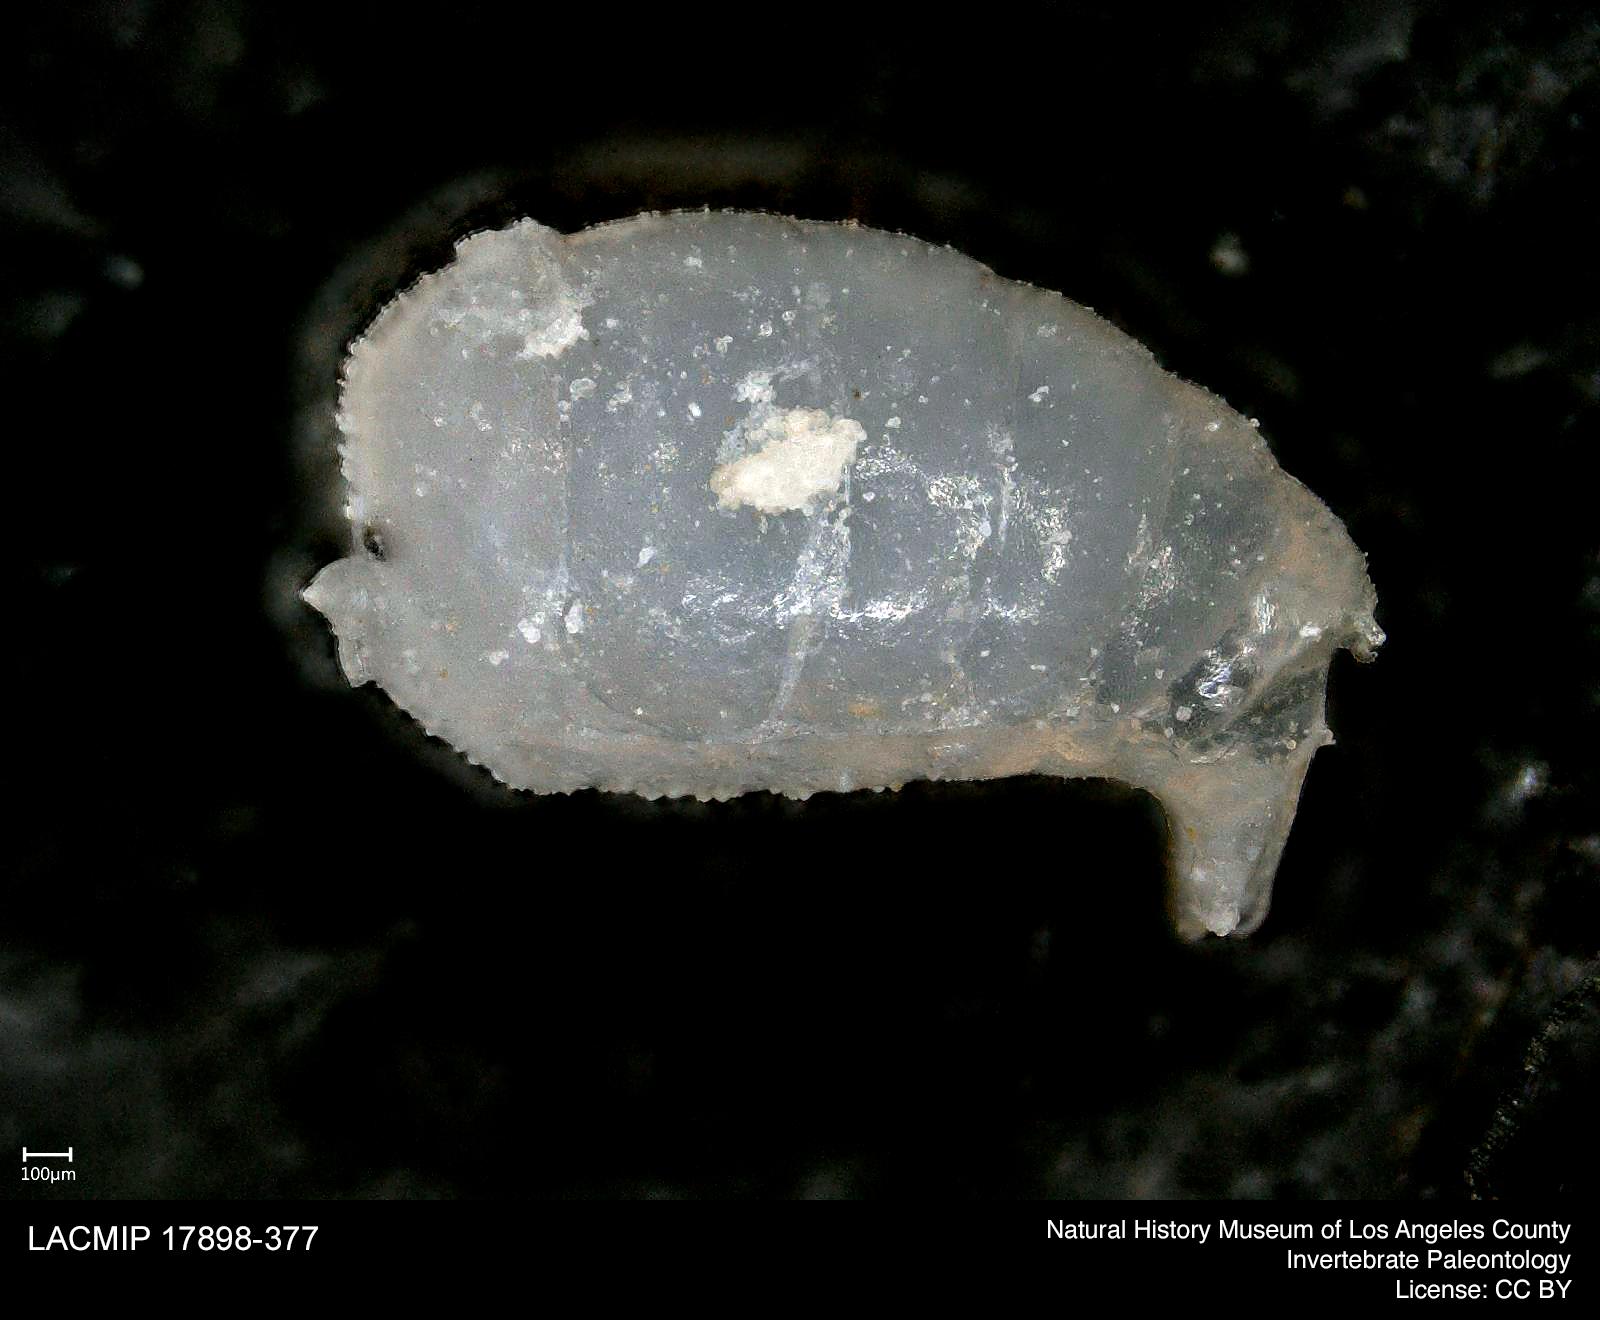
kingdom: Animalia
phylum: Arthropoda
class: Insecta
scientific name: Insecta
